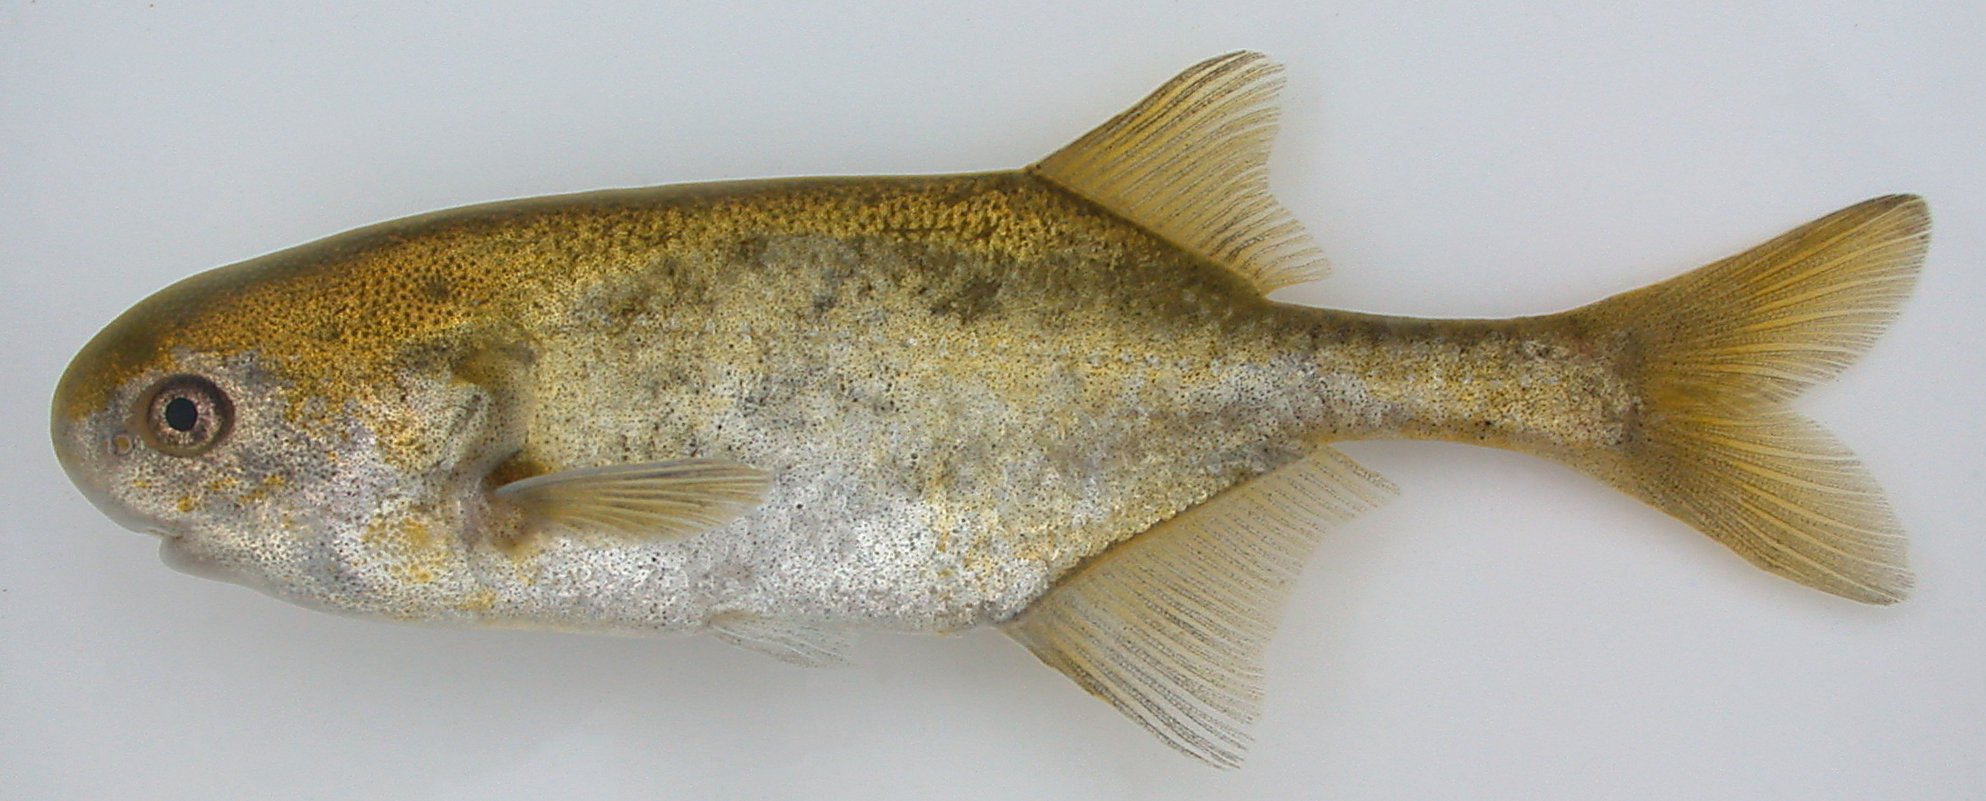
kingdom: Animalia
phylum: Chordata
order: Osteoglossiformes
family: Mormyridae
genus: Petrocephalus
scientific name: Petrocephalus wesselsi
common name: Southern churchill
